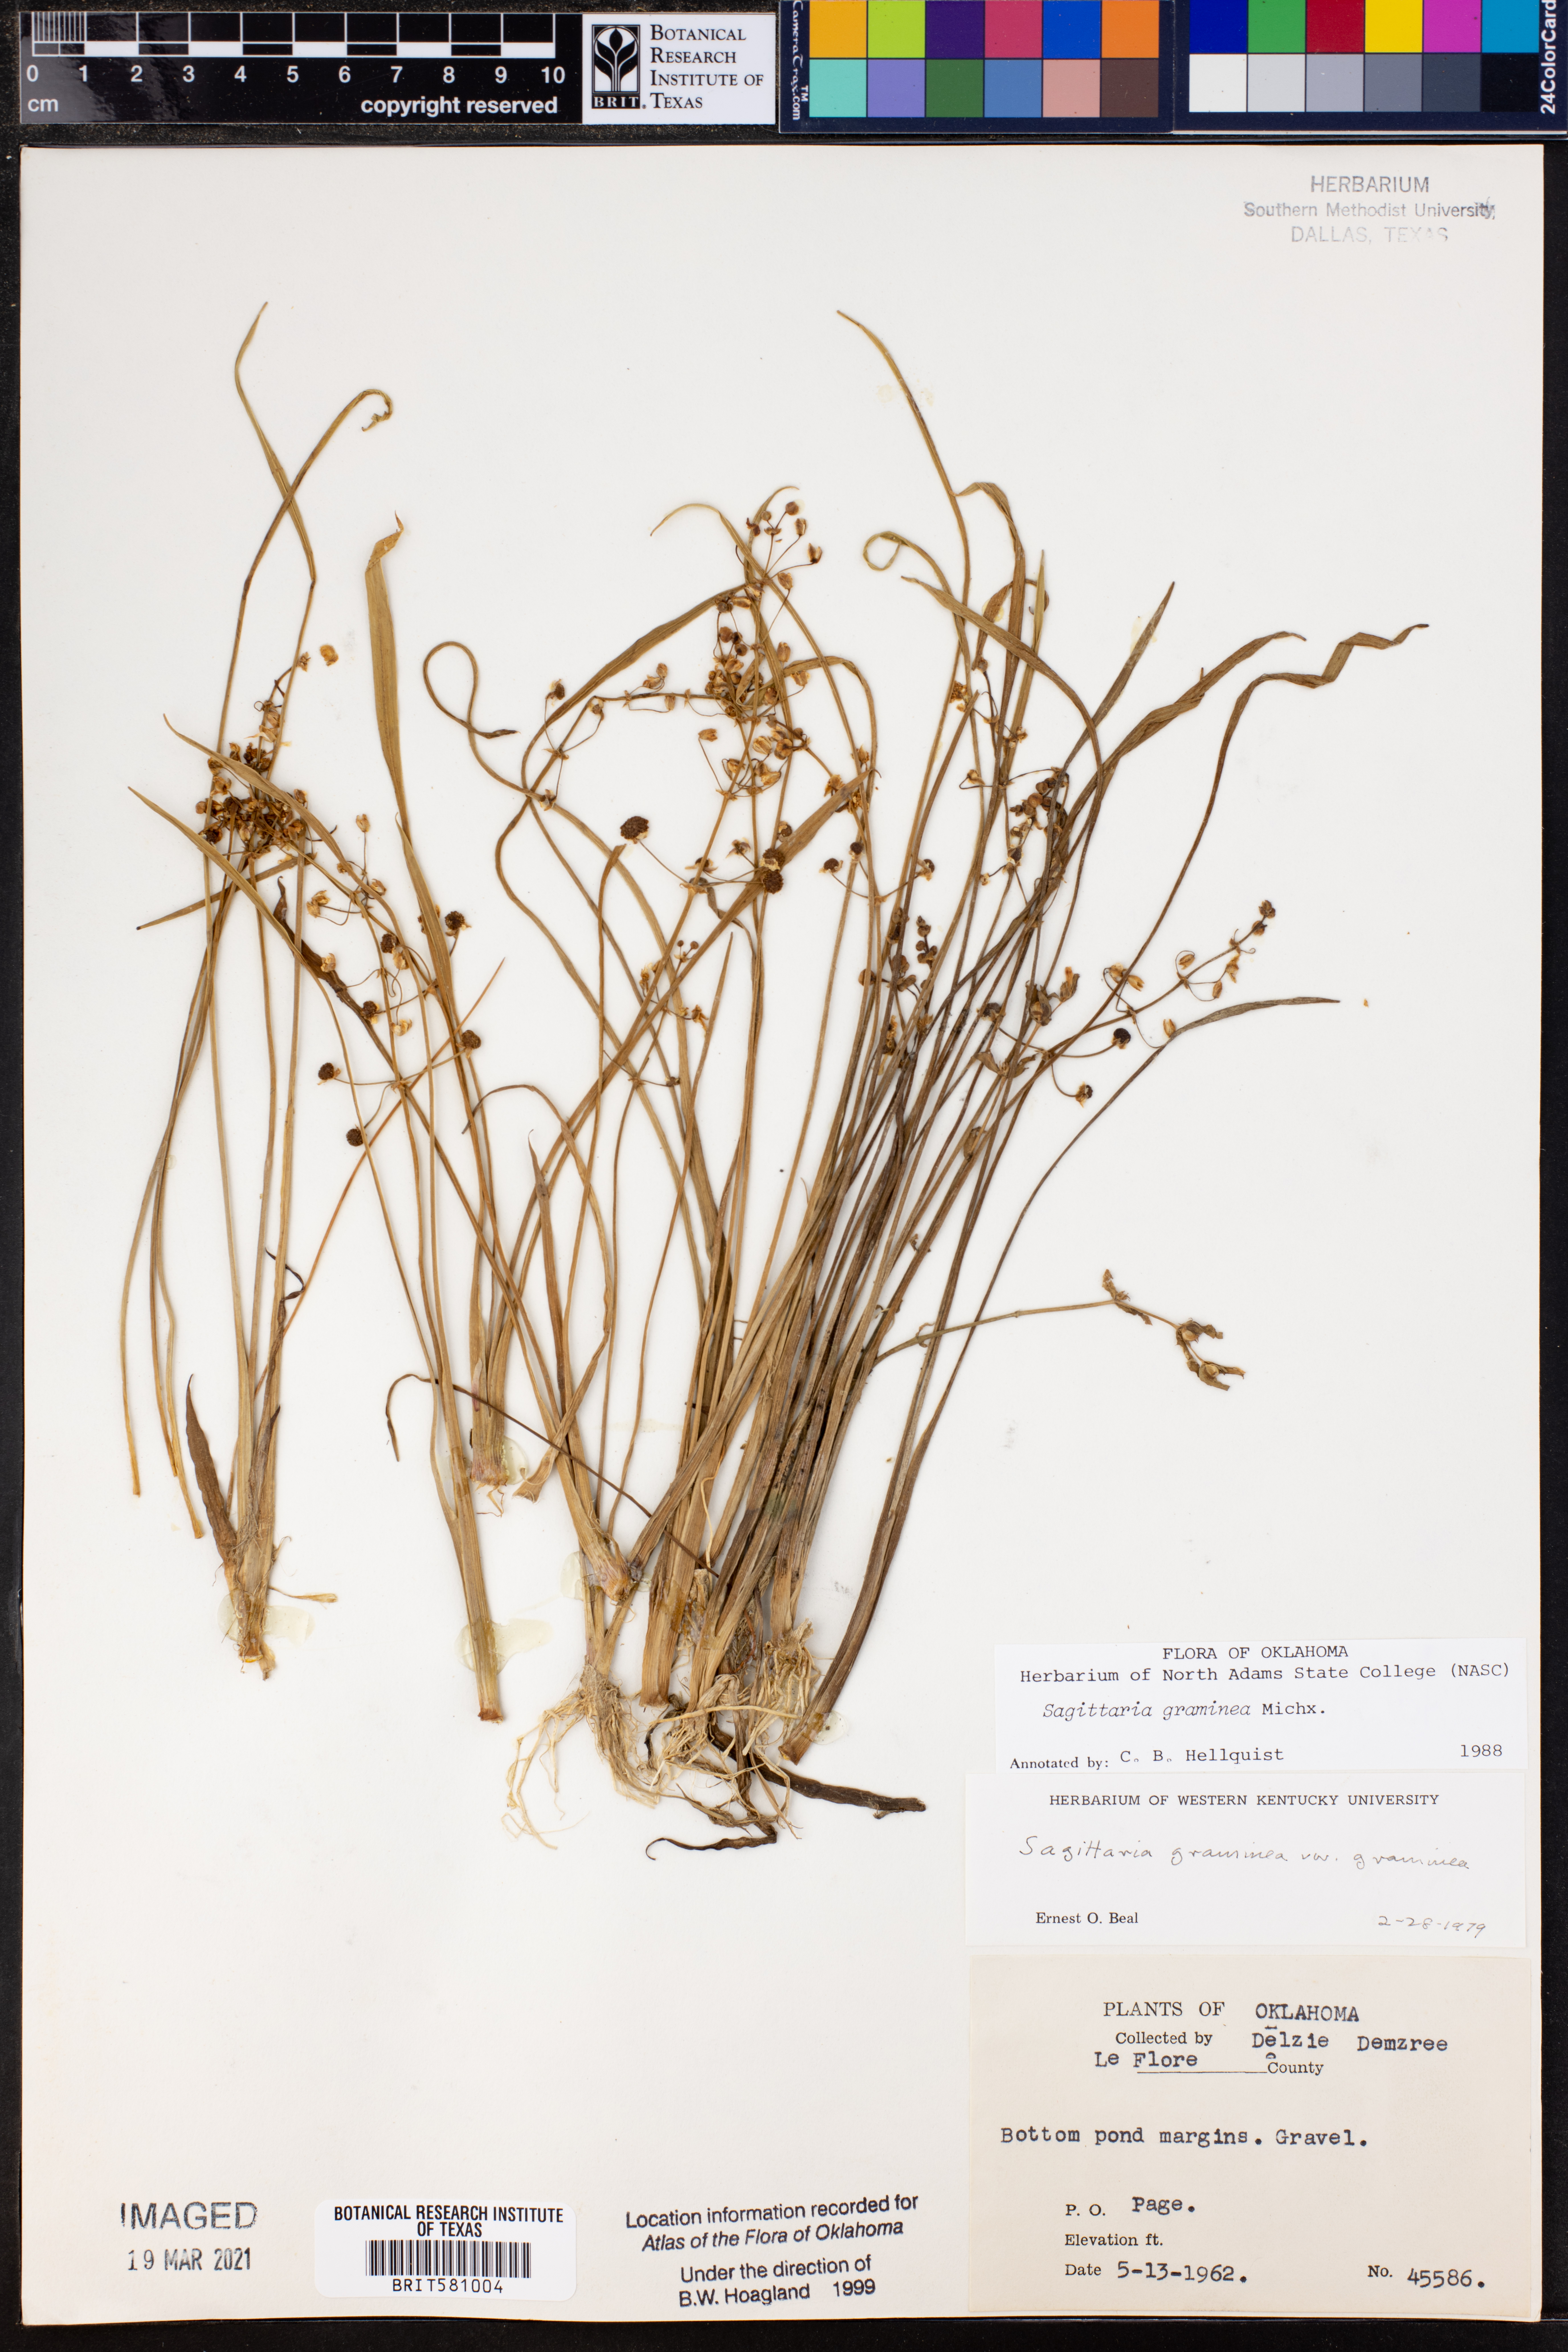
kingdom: Plantae
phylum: Tracheophyta
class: Liliopsida
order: Alismatales
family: Alismataceae
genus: Sagittaria
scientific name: Sagittaria graminea
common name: Grass-leaved arrowhead
